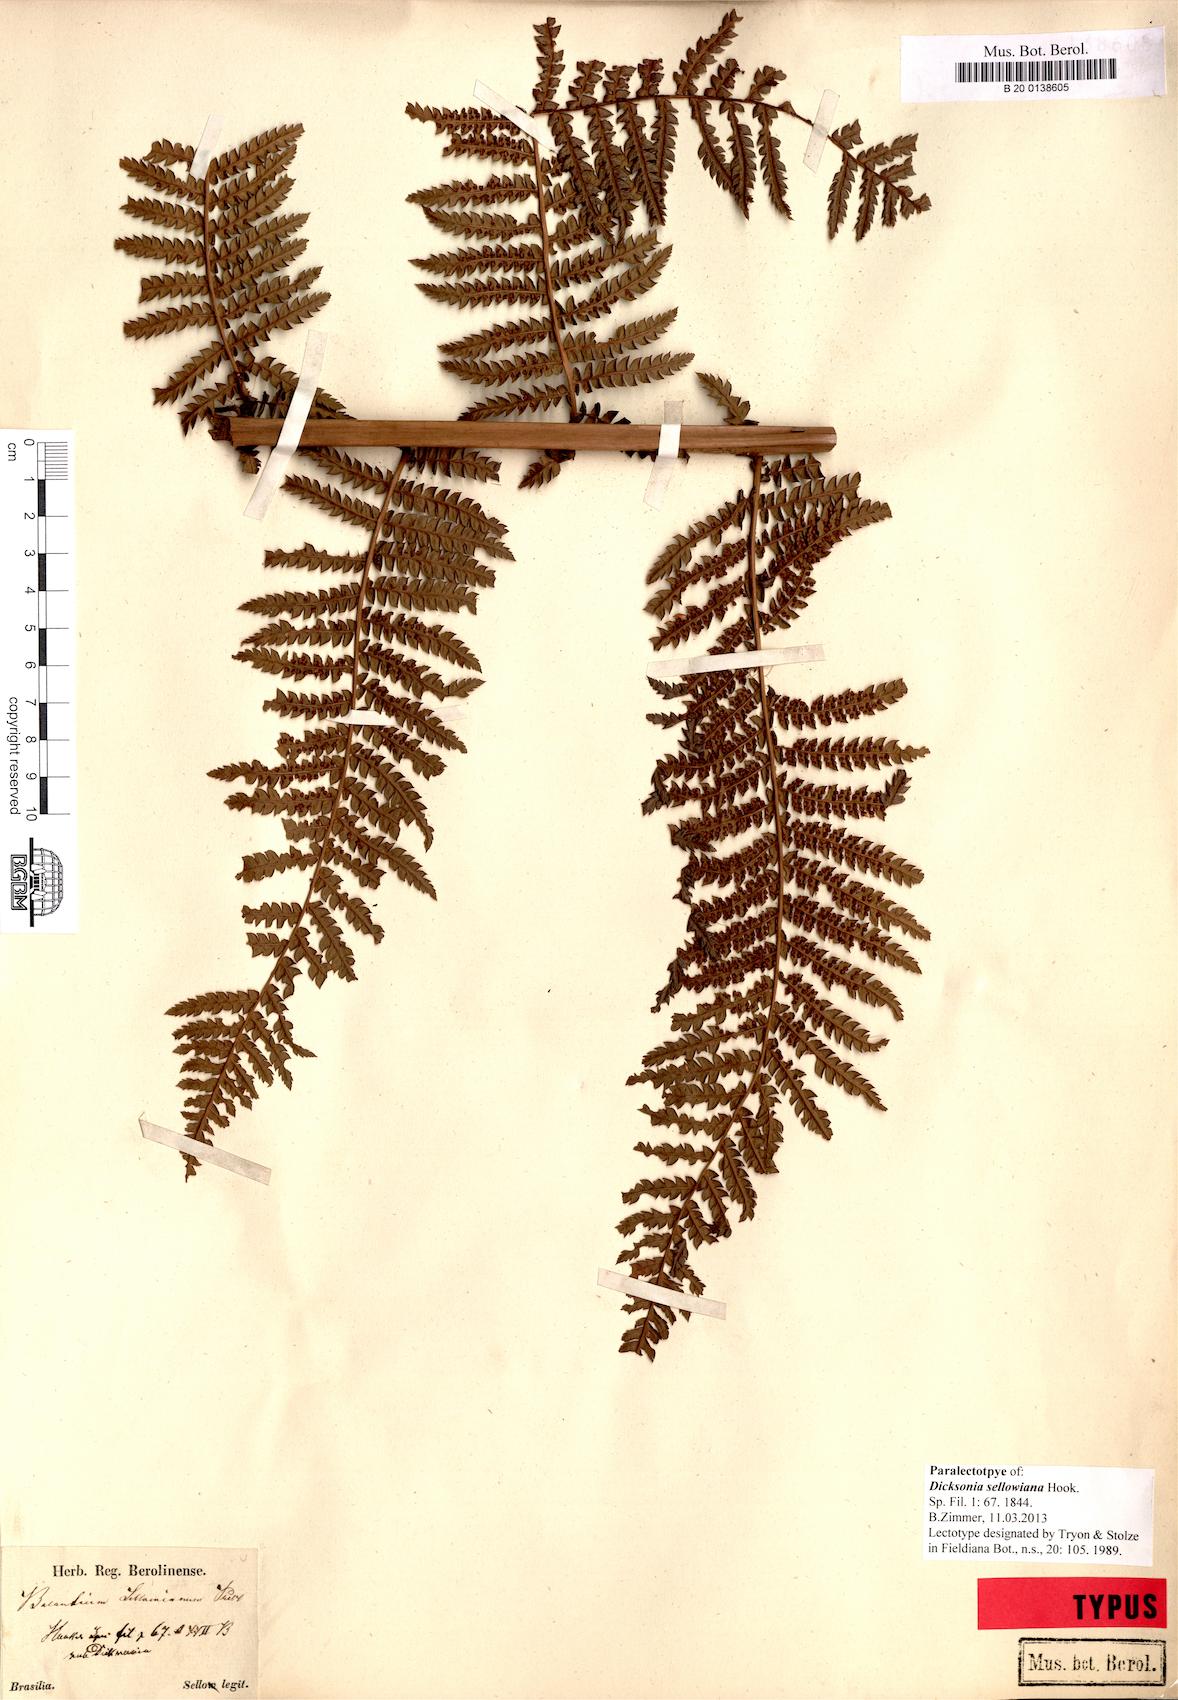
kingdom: Plantae
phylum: Tracheophyta
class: Polypodiopsida
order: Cyatheales
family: Dicksoniaceae
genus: Dicksonia
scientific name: Dicksonia sellowiana
